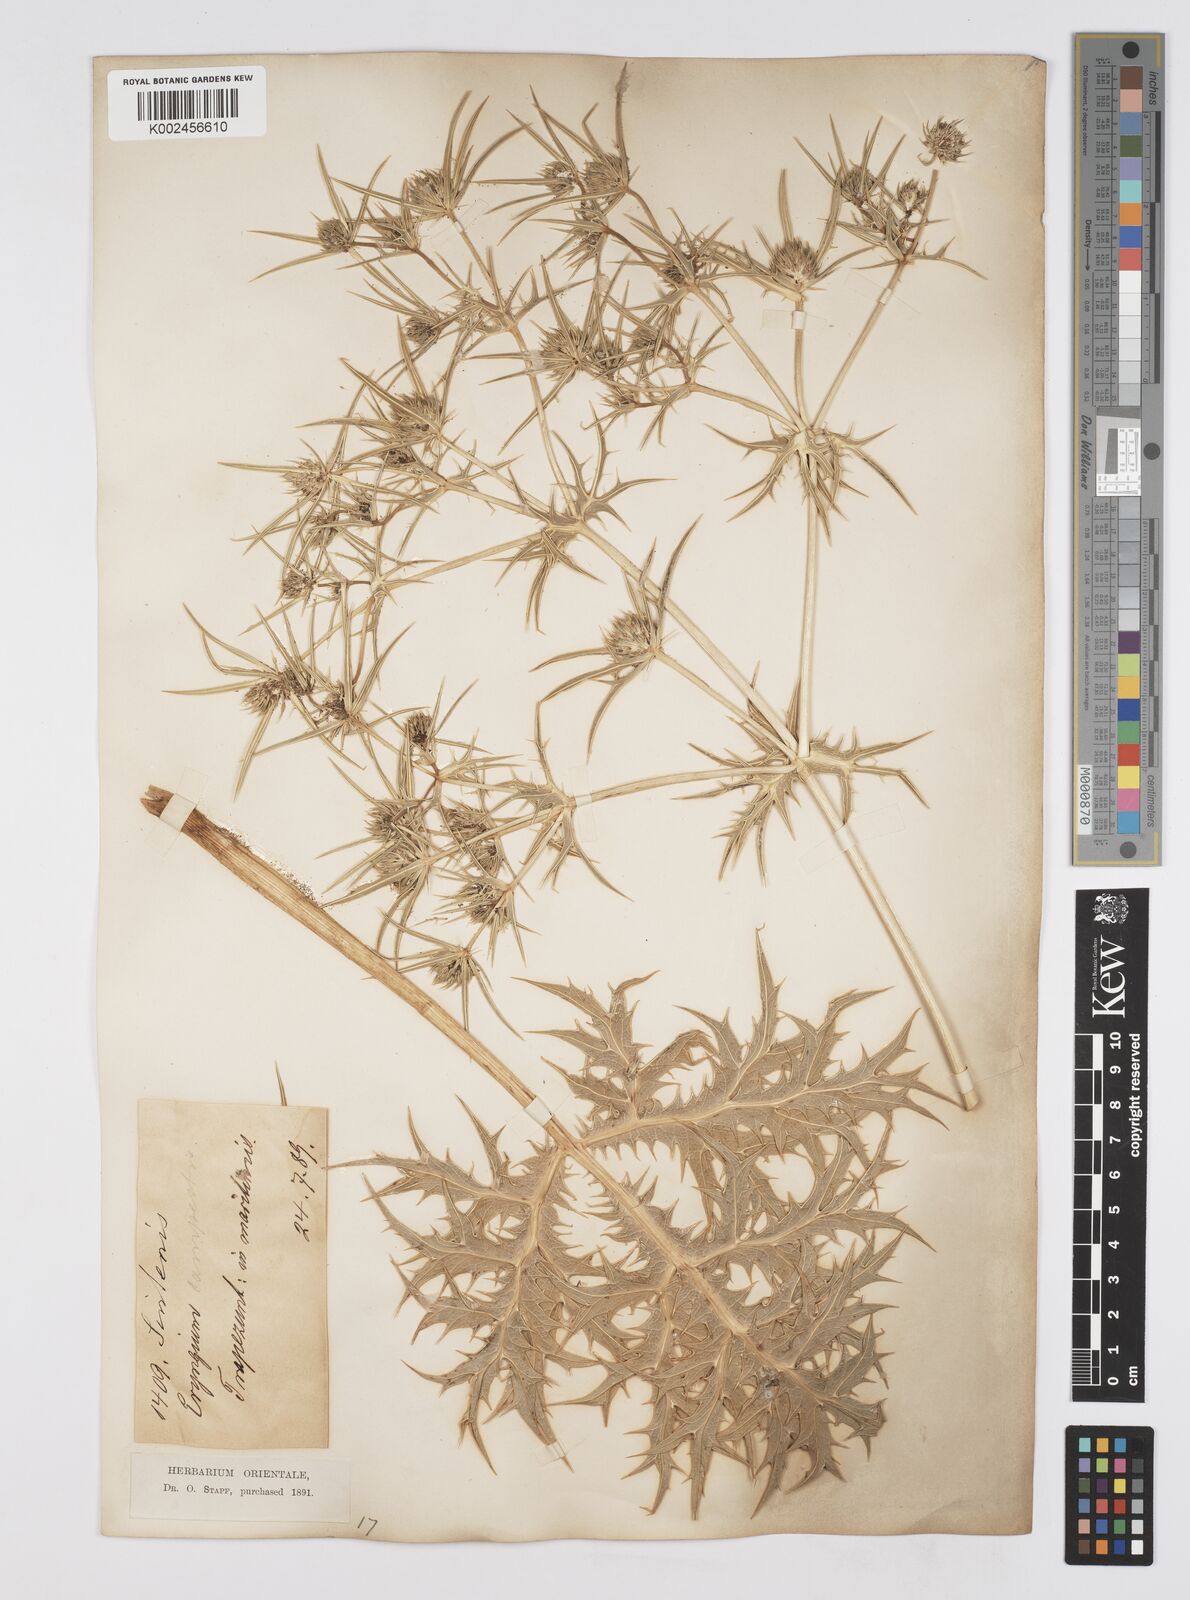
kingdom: Plantae
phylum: Tracheophyta
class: Magnoliopsida
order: Apiales
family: Apiaceae
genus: Eryngium
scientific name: Eryngium campestre
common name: Field eryngo
